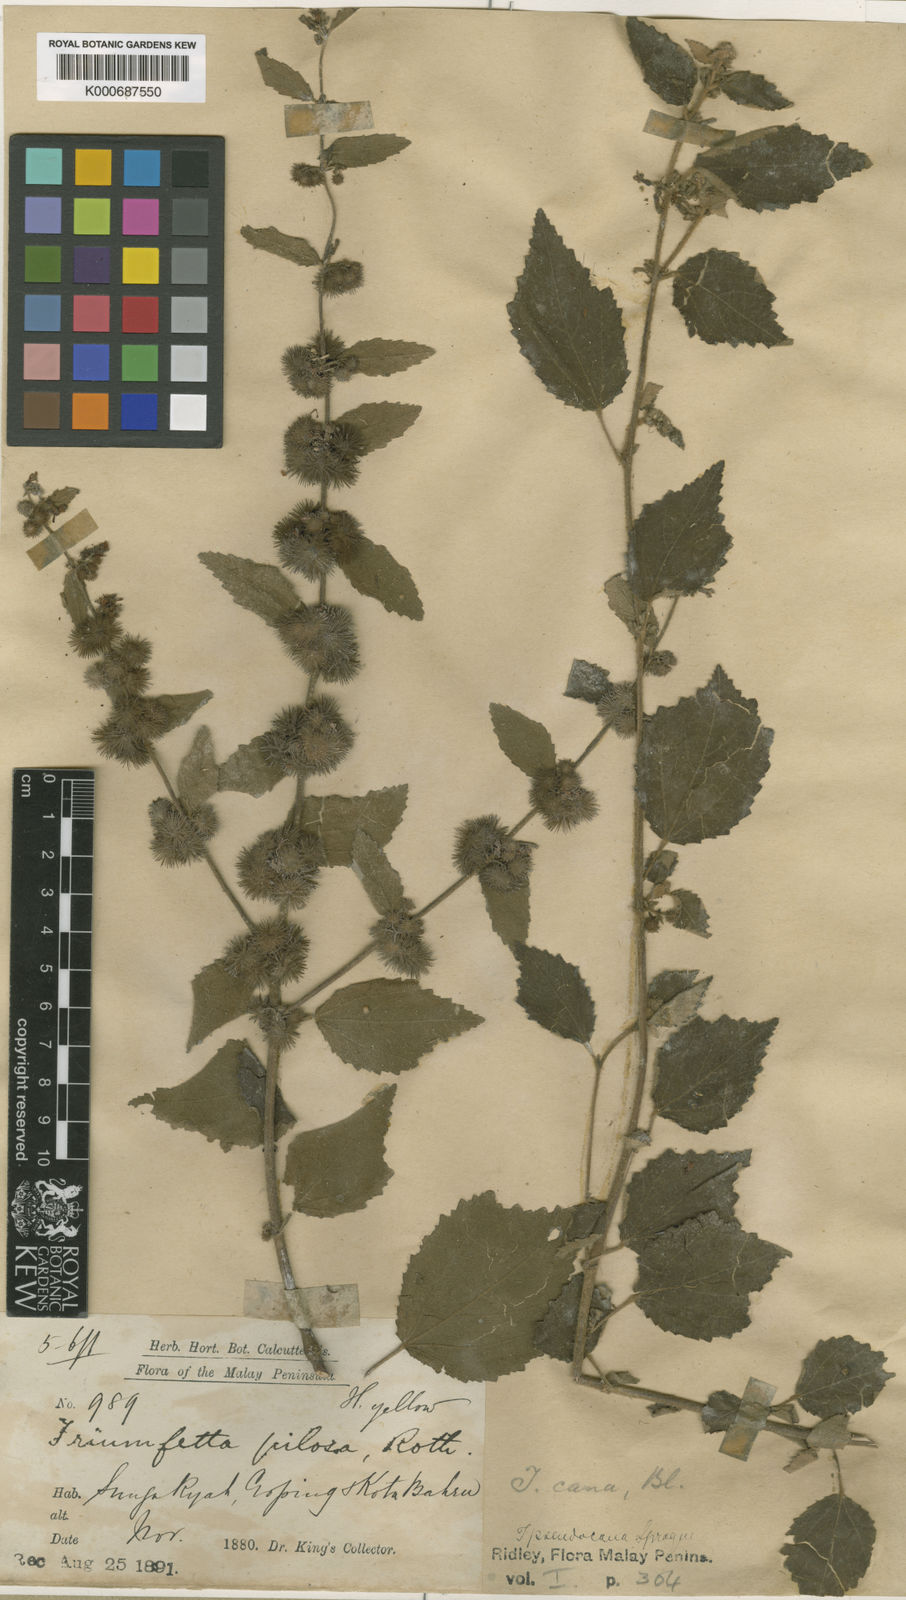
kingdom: Plantae
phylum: Tracheophyta
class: Magnoliopsida
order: Malvales
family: Malvaceae
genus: Triumfetta
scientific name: Triumfetta tomentosa
